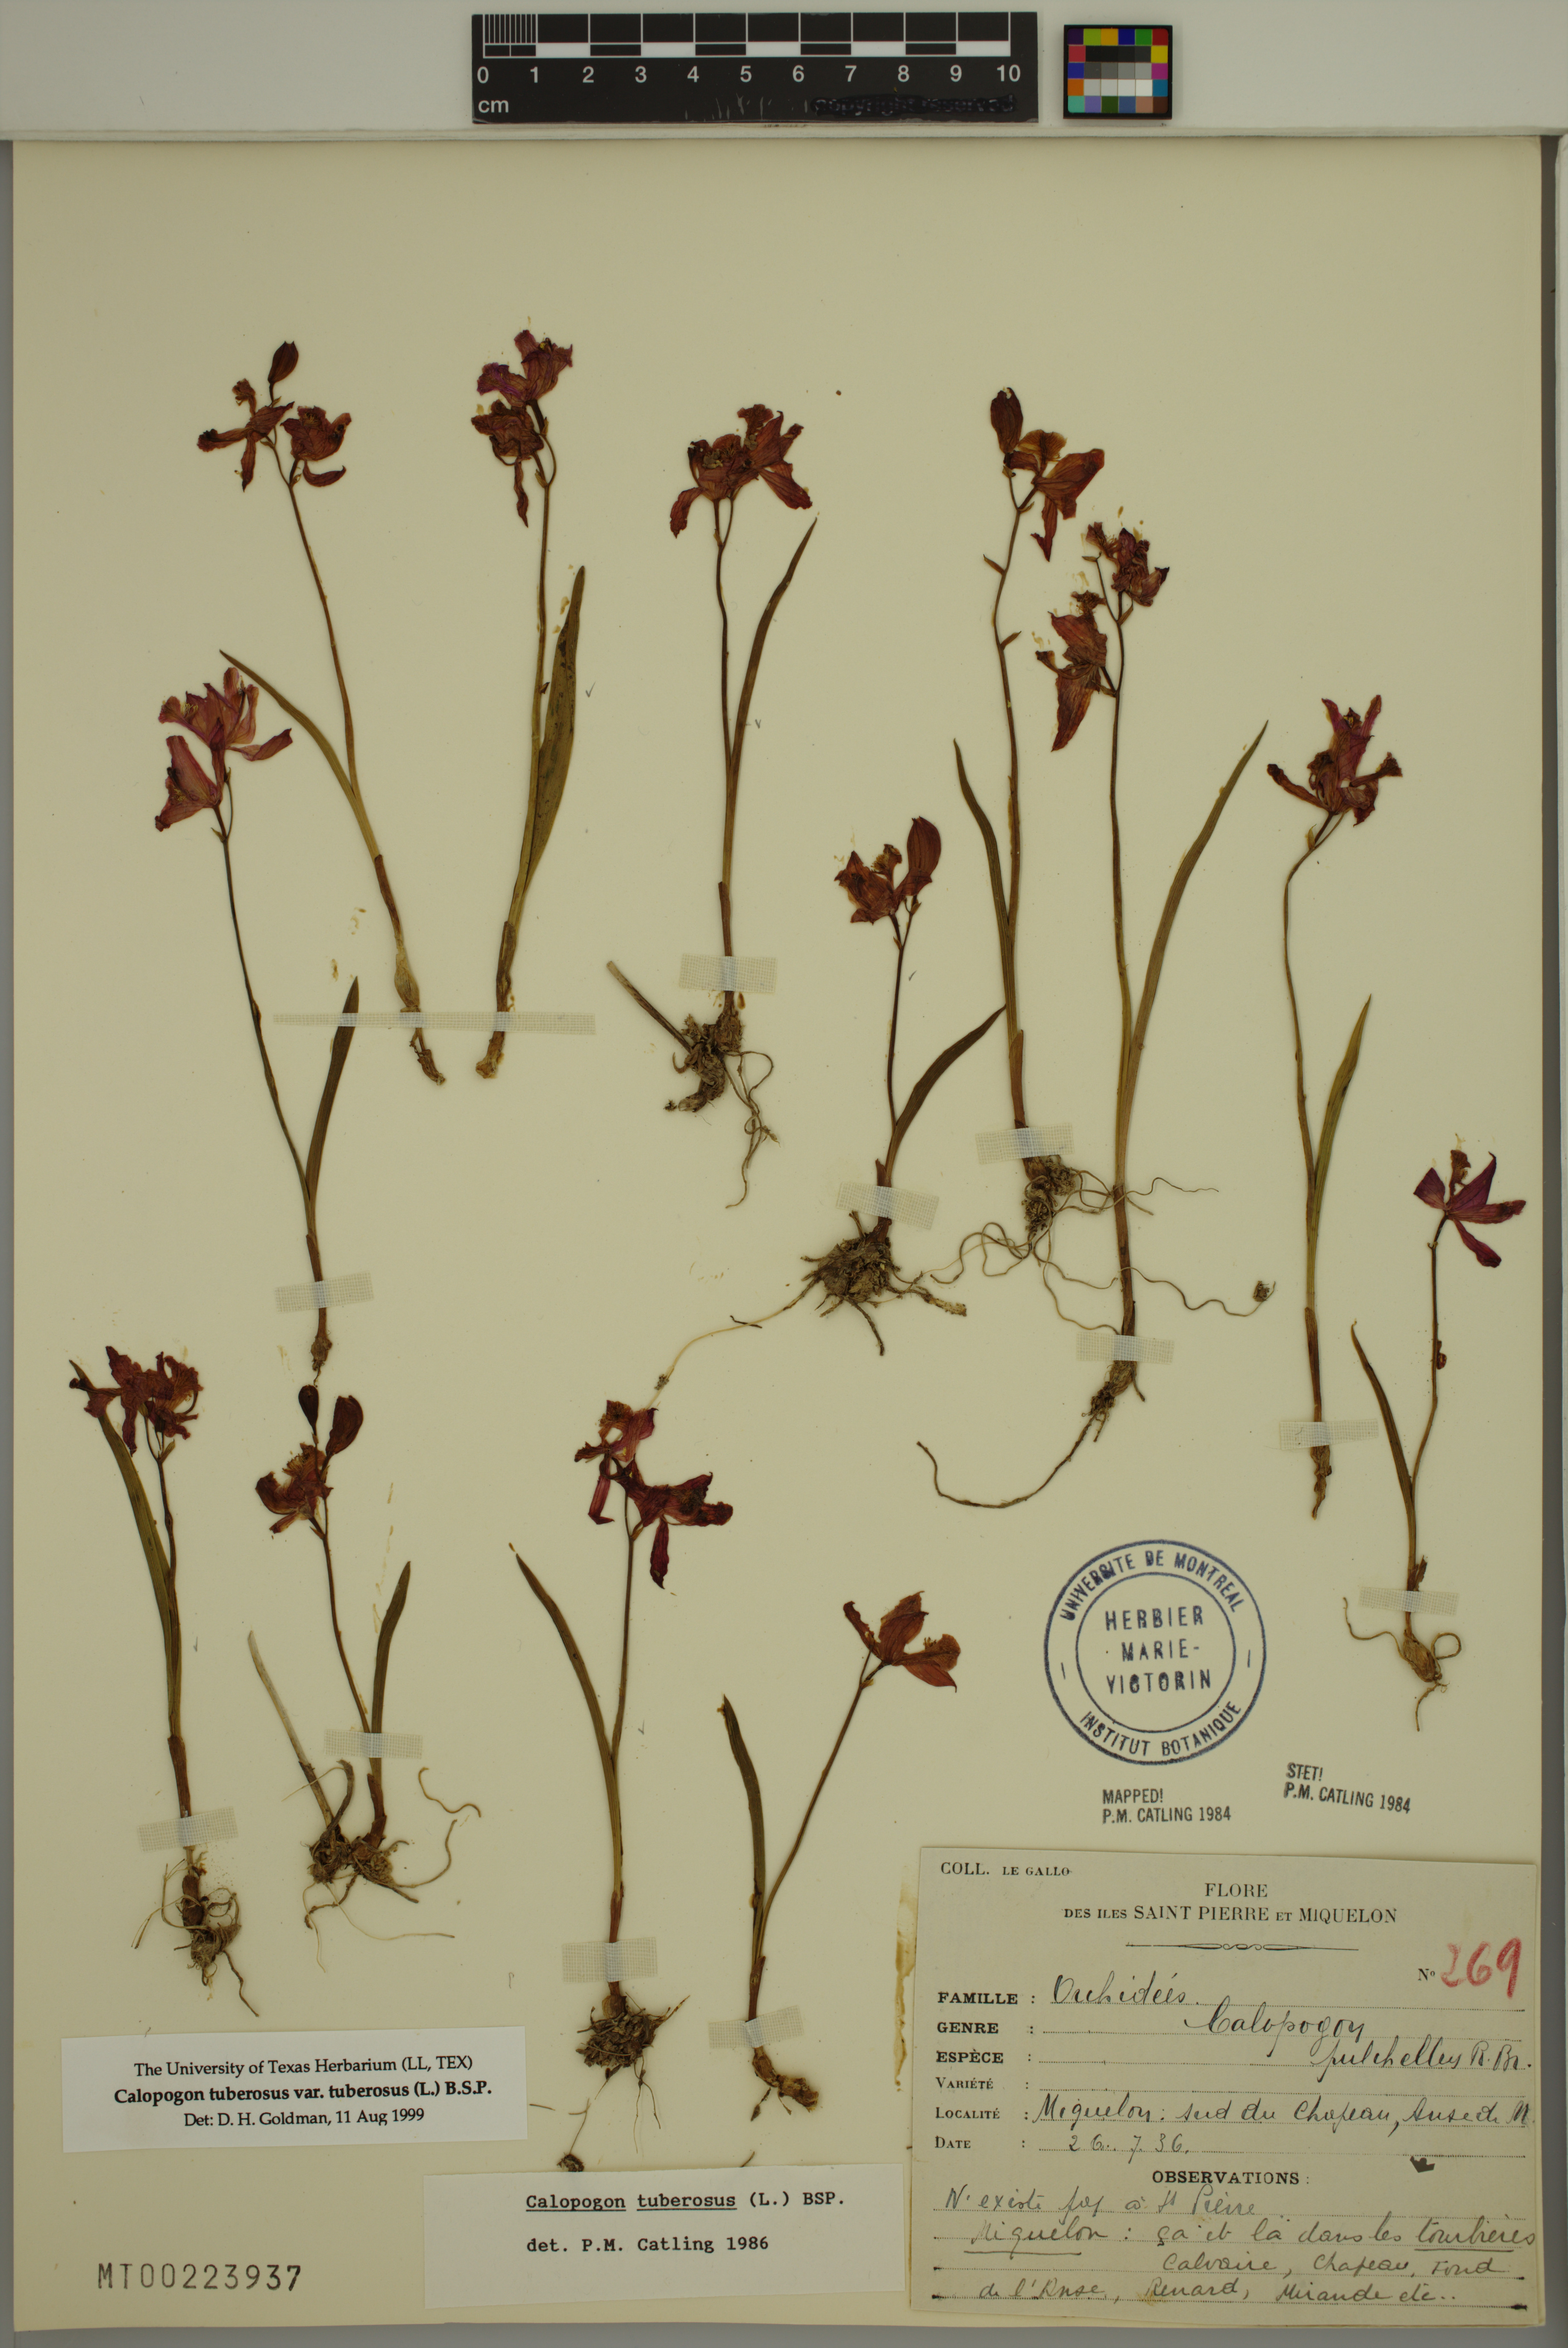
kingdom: Plantae
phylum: Tracheophyta
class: Liliopsida
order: Asparagales
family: Orchidaceae
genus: Calopogon
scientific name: Calopogon tuberosus
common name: Grass-pink
